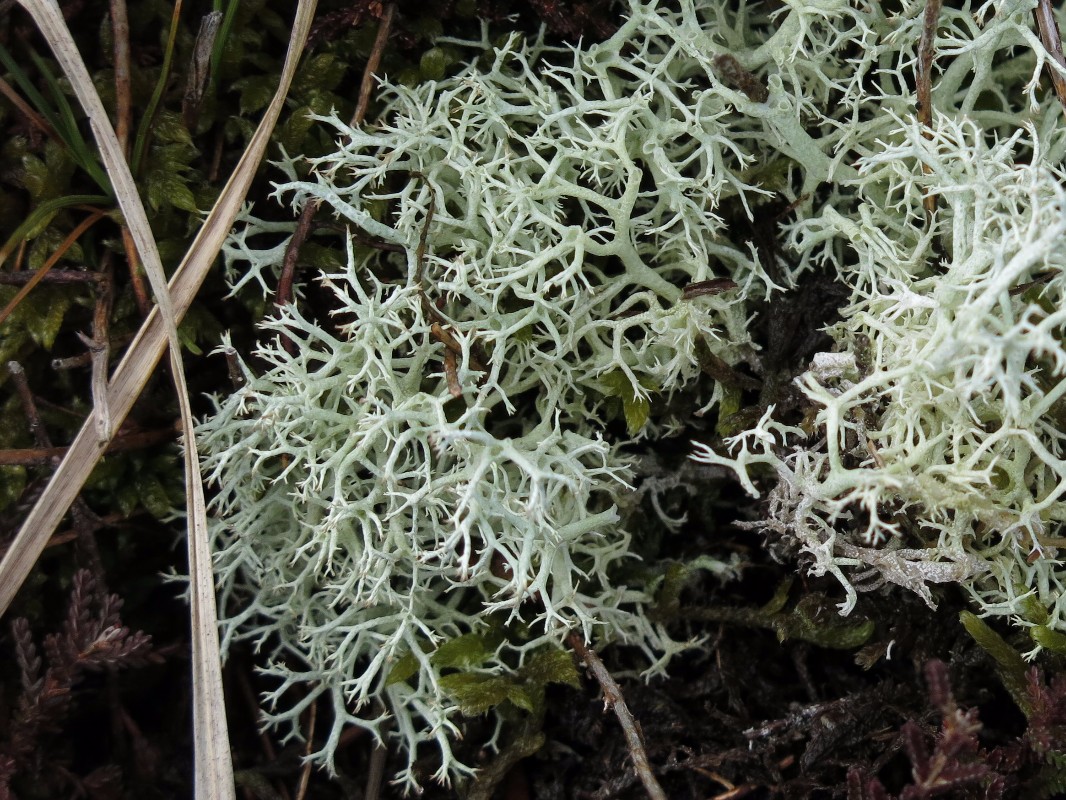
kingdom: Fungi
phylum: Ascomycota
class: Lecanoromycetes
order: Lecanorales
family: Cladoniaceae
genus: Cladonia
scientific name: Cladonia portentosa
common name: hede-rensdyrlav
